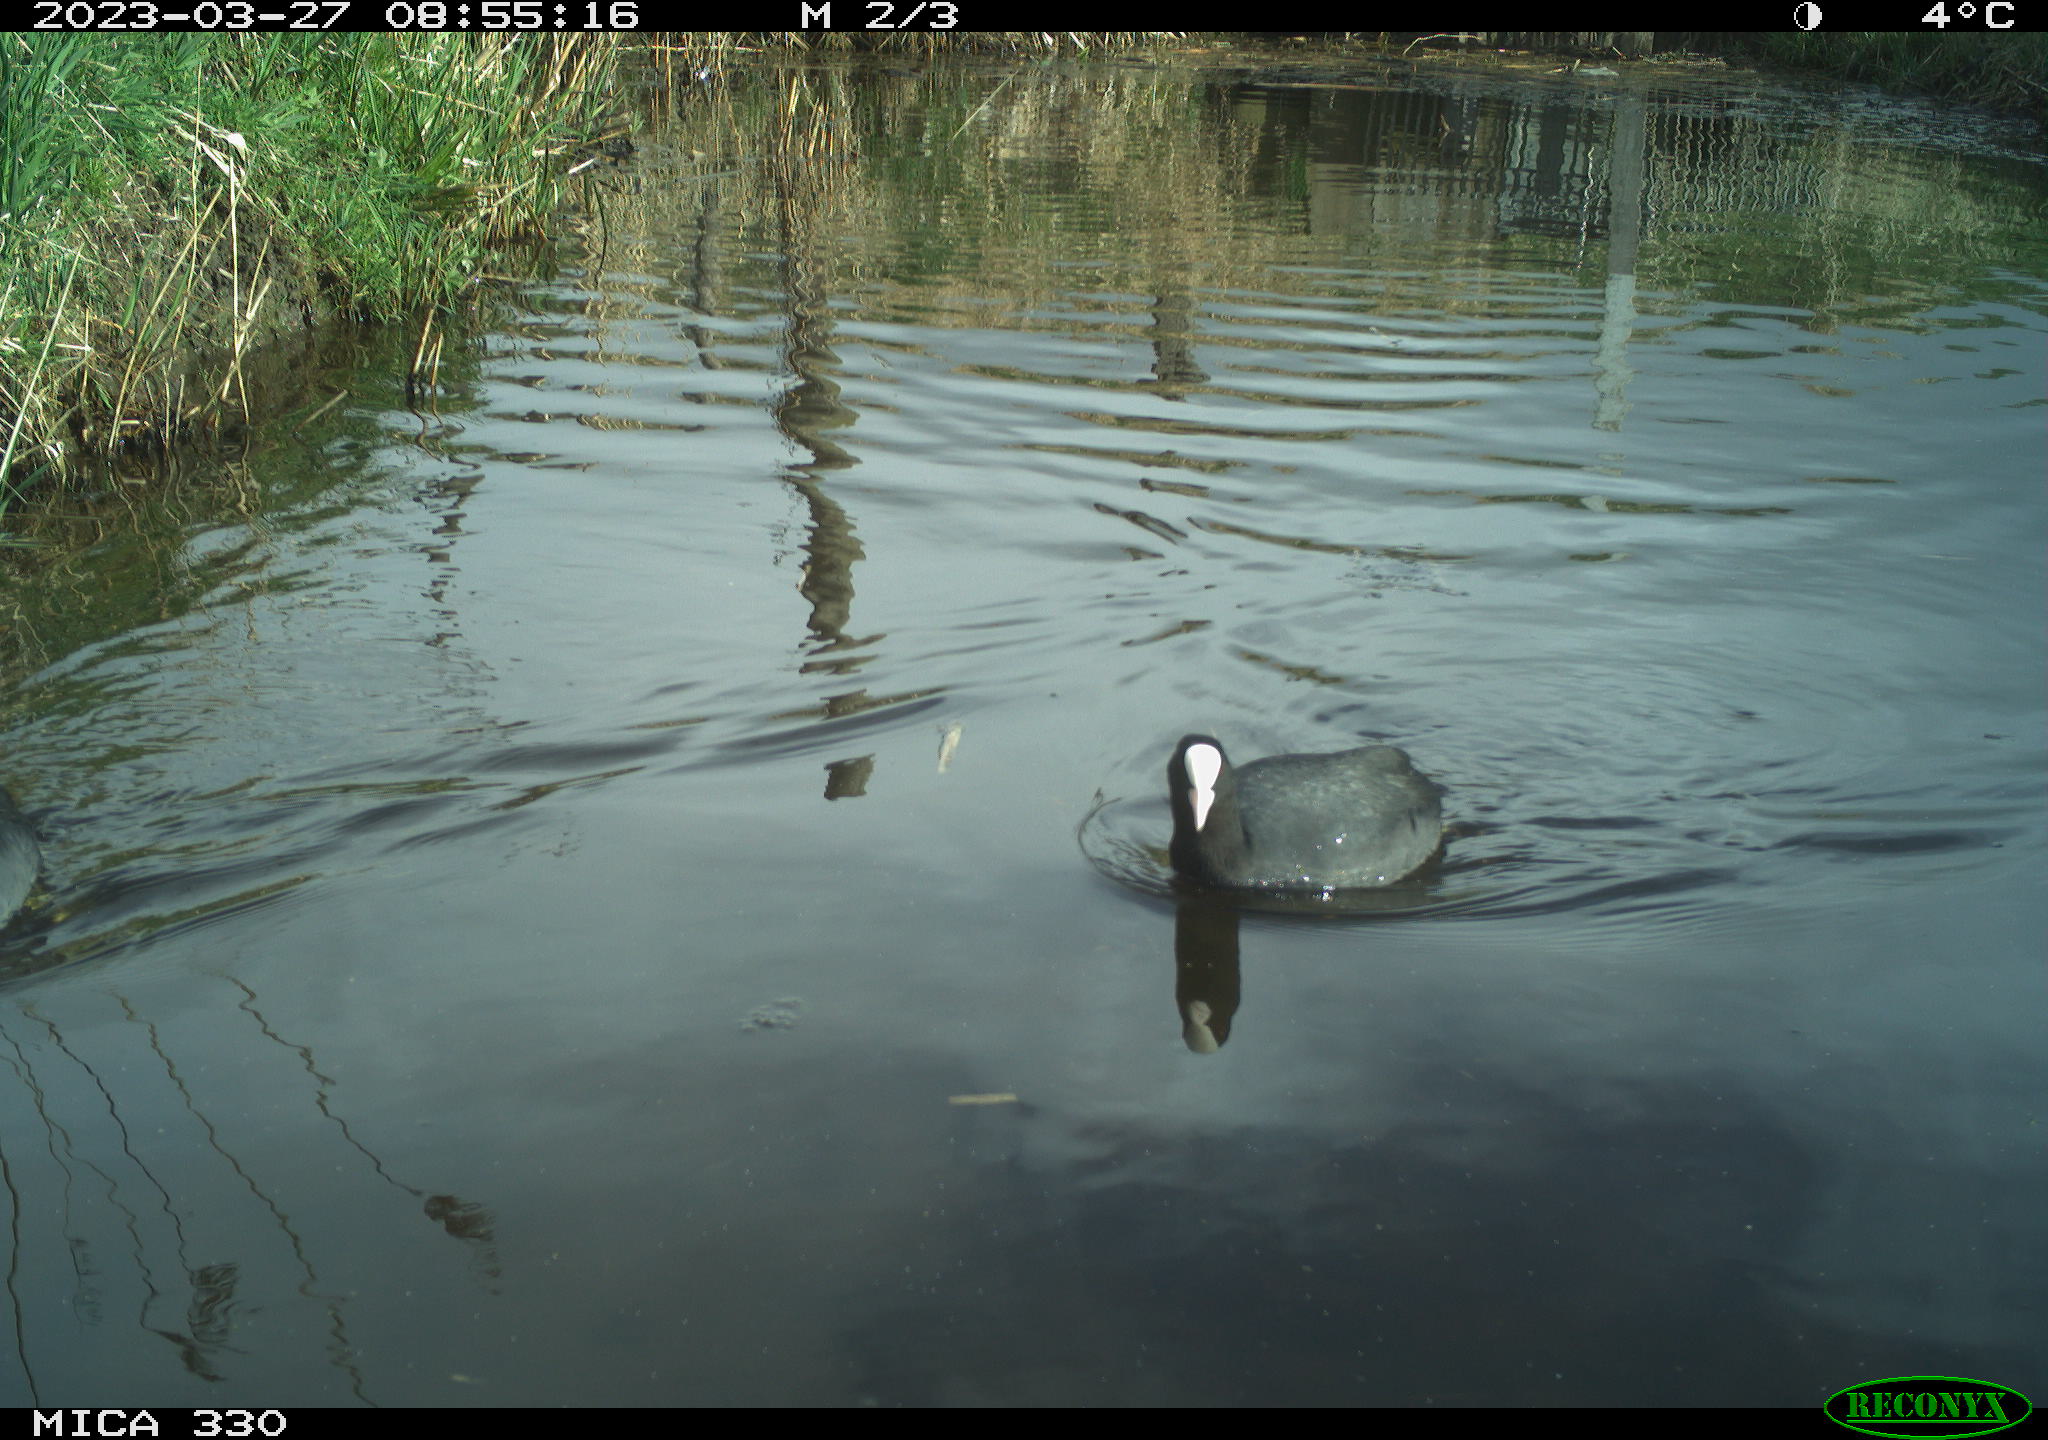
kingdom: Animalia
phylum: Chordata
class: Aves
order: Gruiformes
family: Rallidae
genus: Fulica
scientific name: Fulica atra
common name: Eurasian coot
